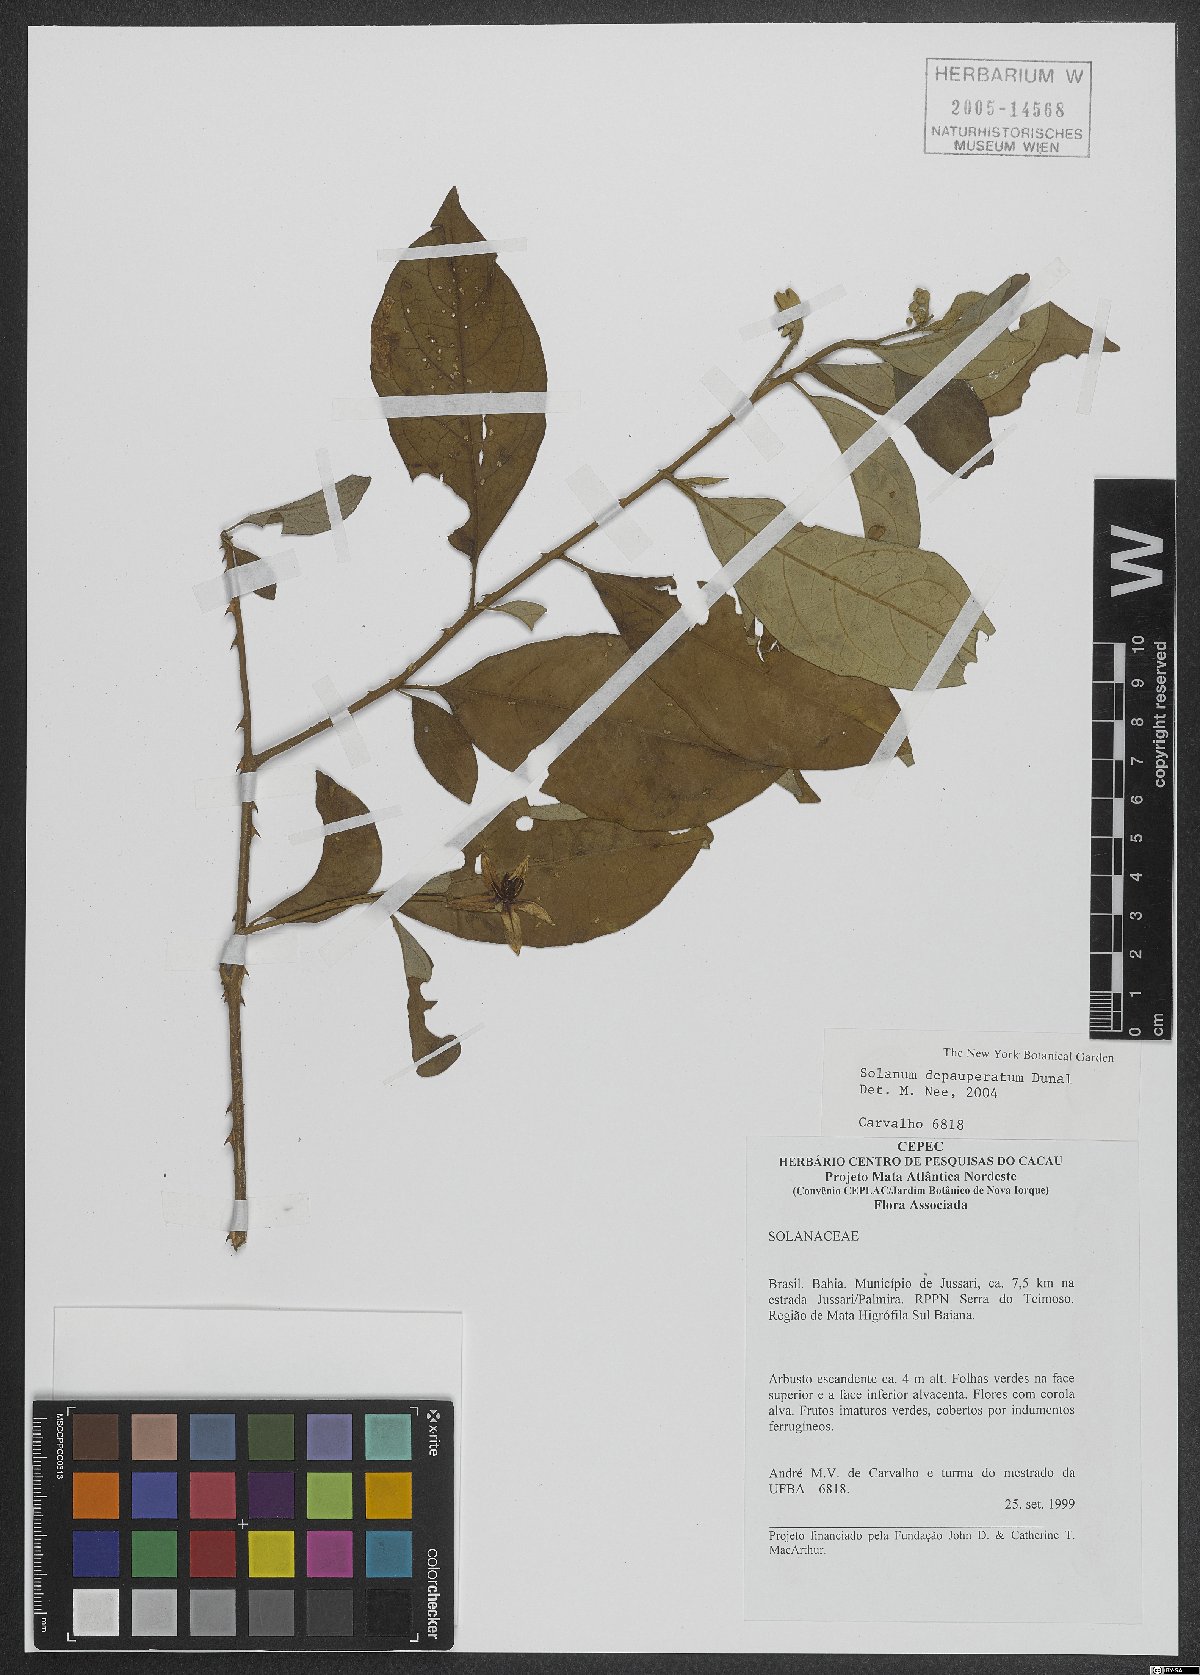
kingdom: Plantae
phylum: Tracheophyta
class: Magnoliopsida
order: Solanales
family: Solanaceae
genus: Solanum
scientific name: Solanum depauperatum
